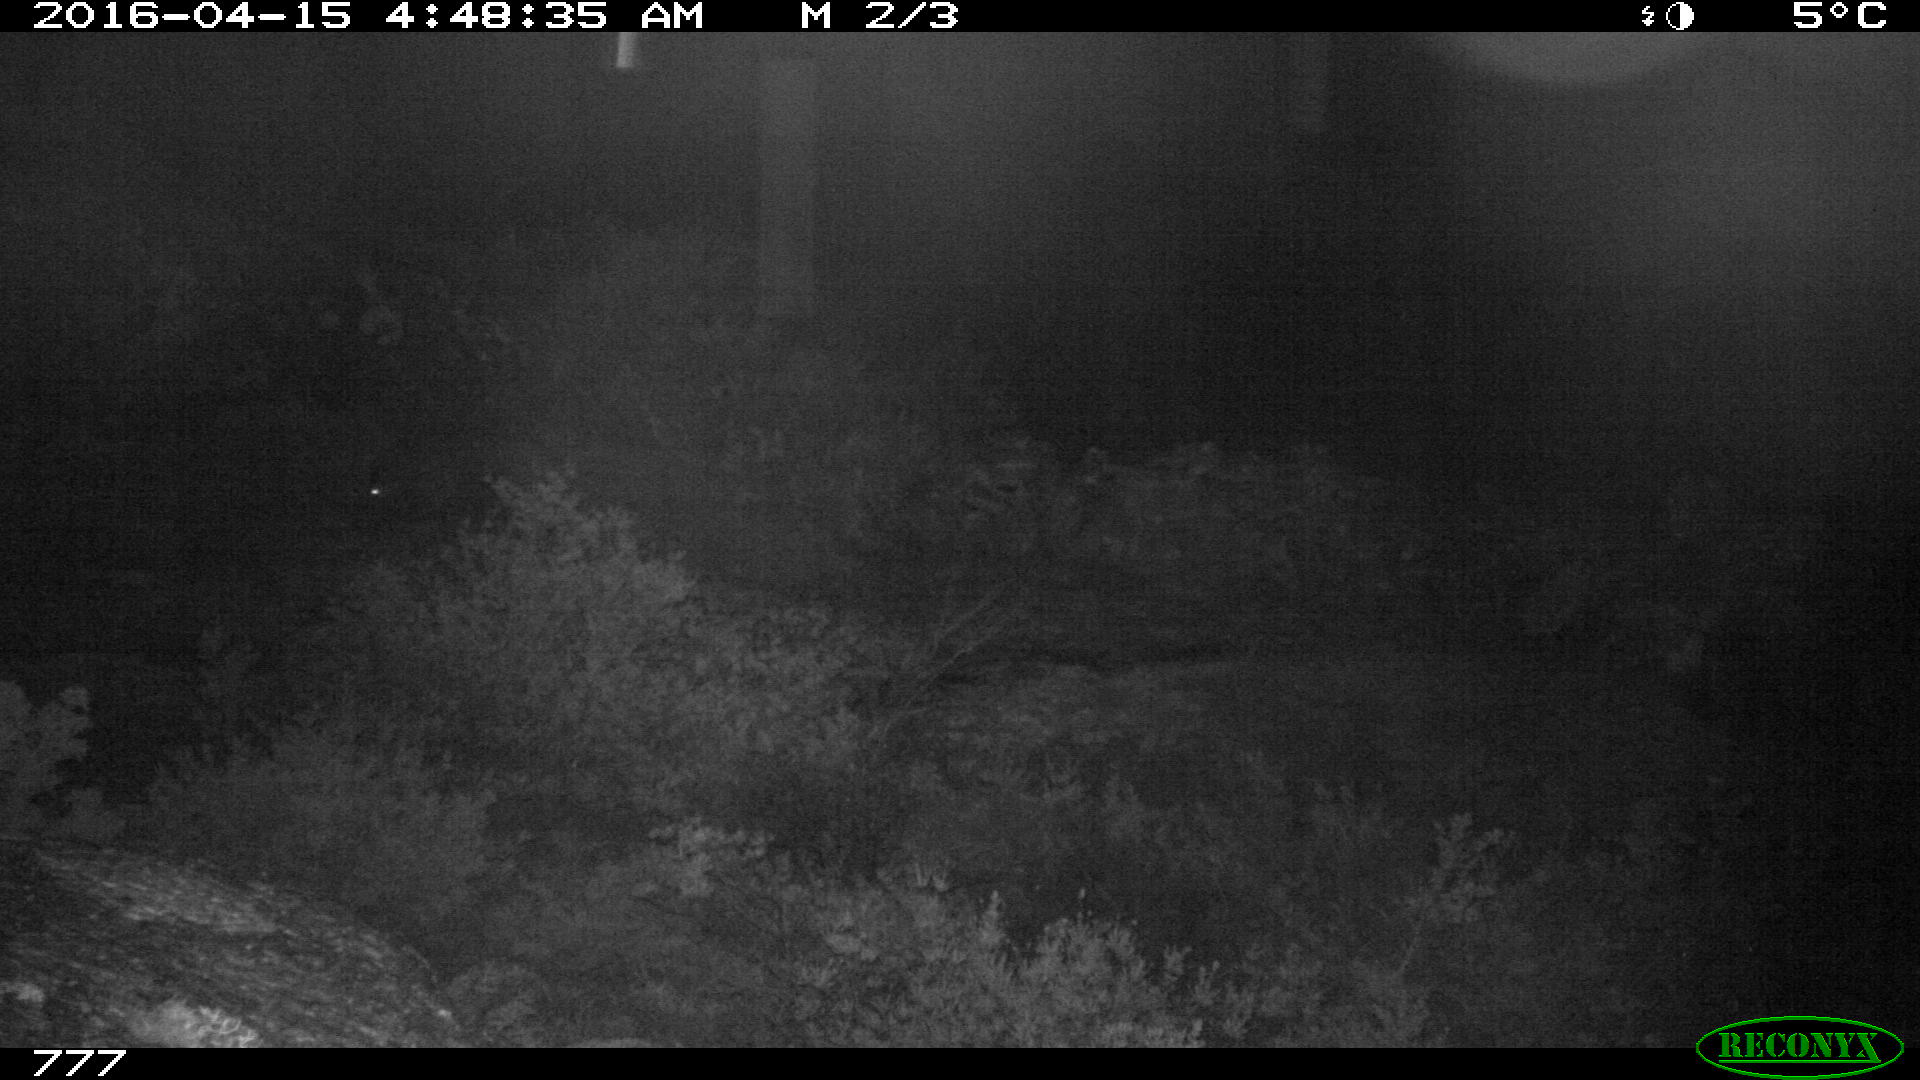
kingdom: Animalia
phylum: Chordata
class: Mammalia
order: Artiodactyla
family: Suidae
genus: Sus
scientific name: Sus scrofa
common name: Wild boar
